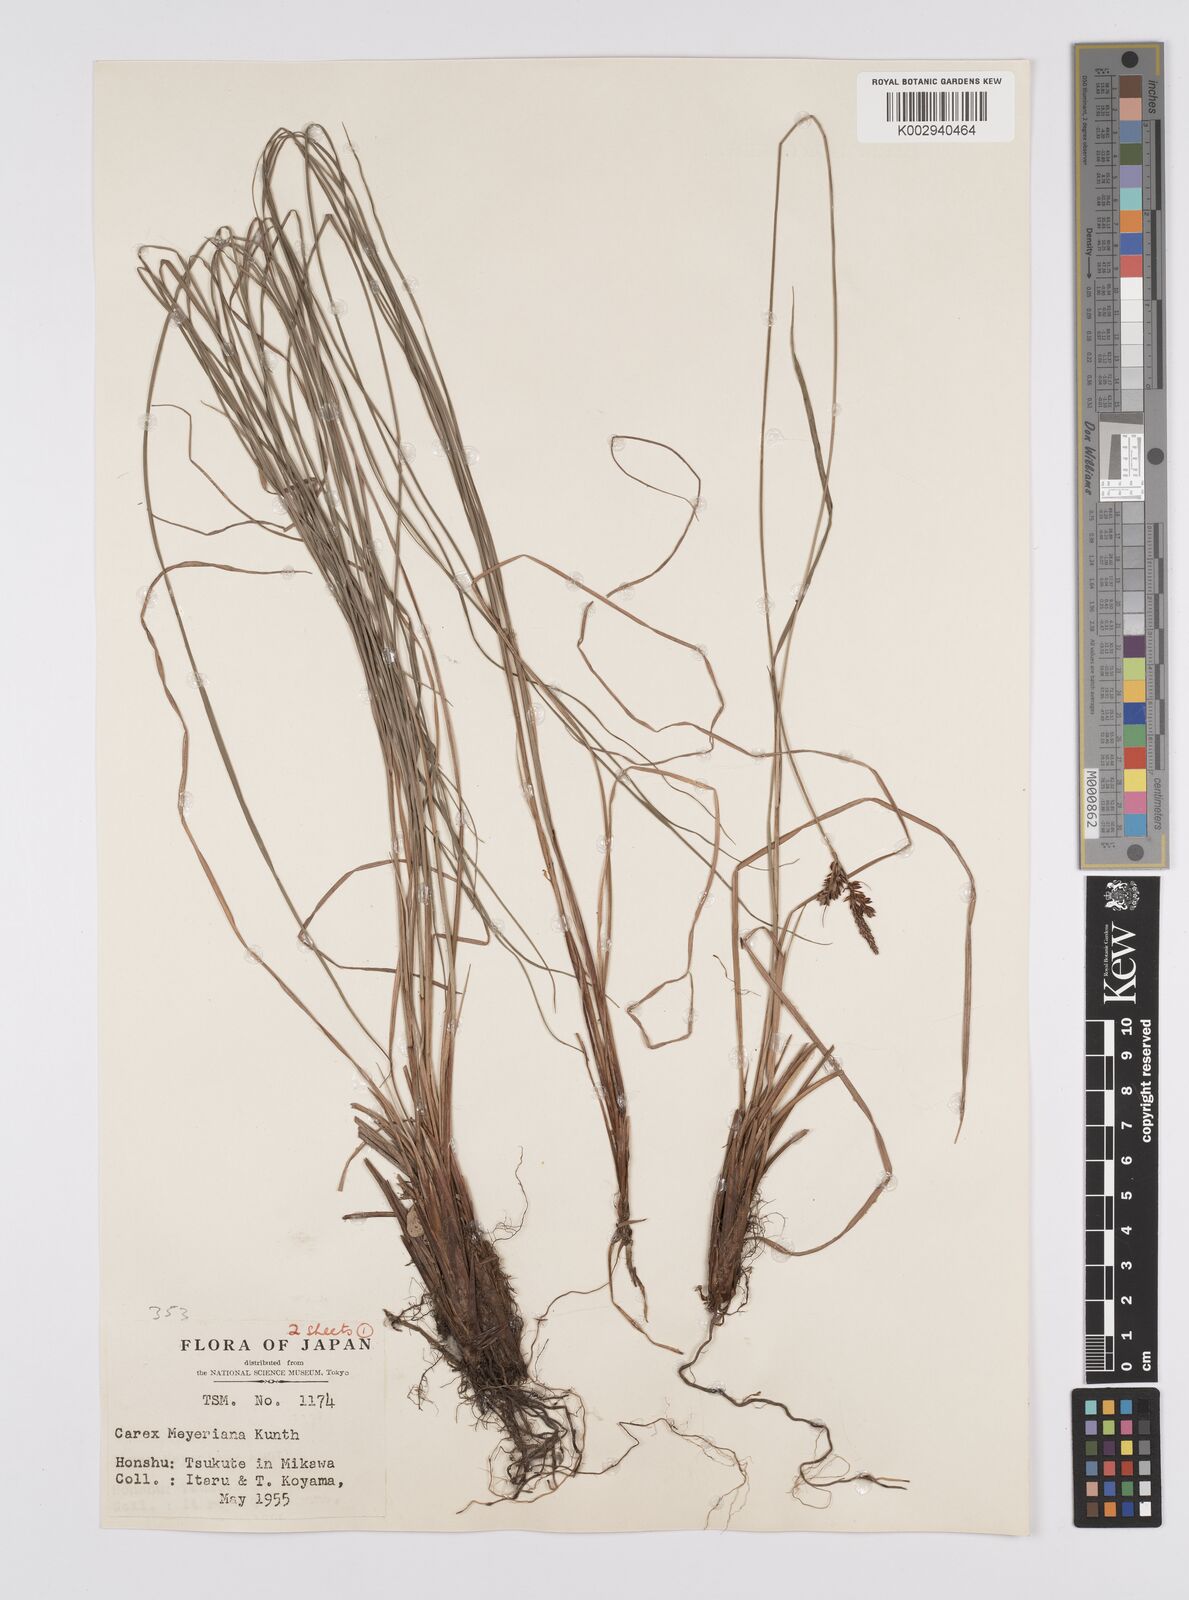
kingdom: Plantae
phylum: Tracheophyta
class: Liliopsida
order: Poales
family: Cyperaceae
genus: Carex
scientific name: Carex meyeriana
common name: Wula sedge
